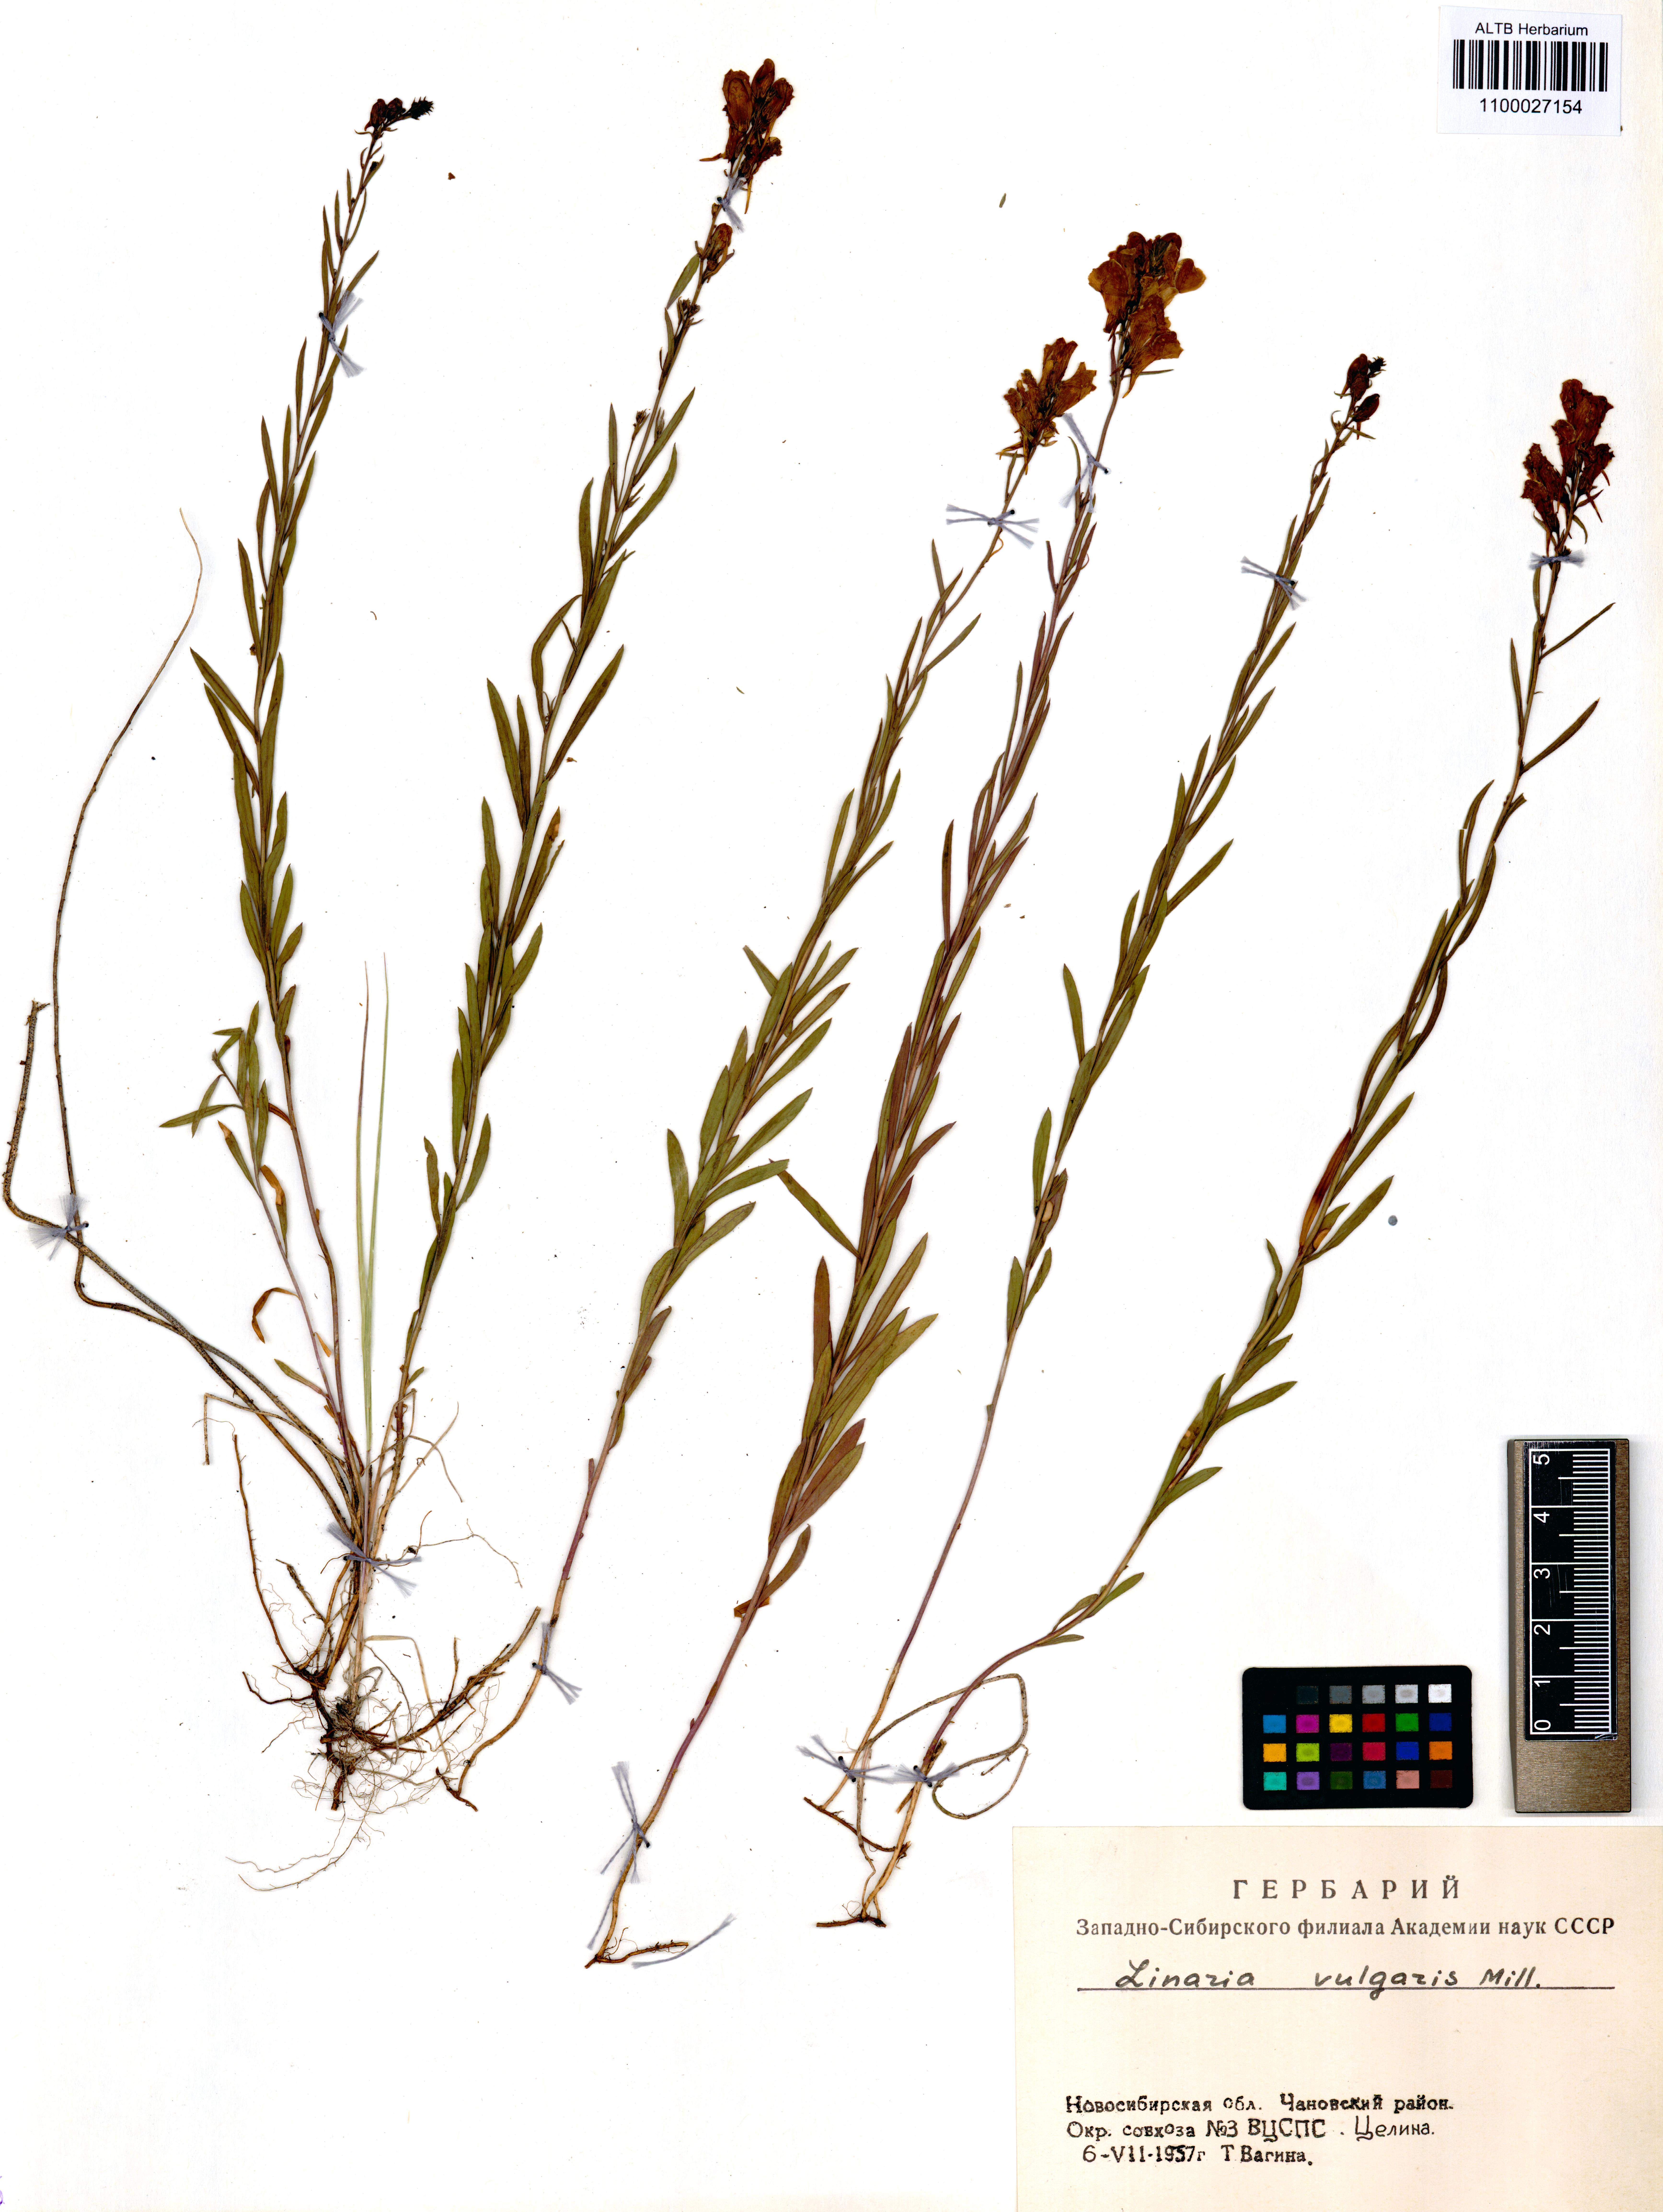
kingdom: Plantae
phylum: Tracheophyta
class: Magnoliopsida
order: Lamiales
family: Plantaginaceae
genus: Linaria
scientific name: Linaria vulgaris
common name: Butter and eggs
